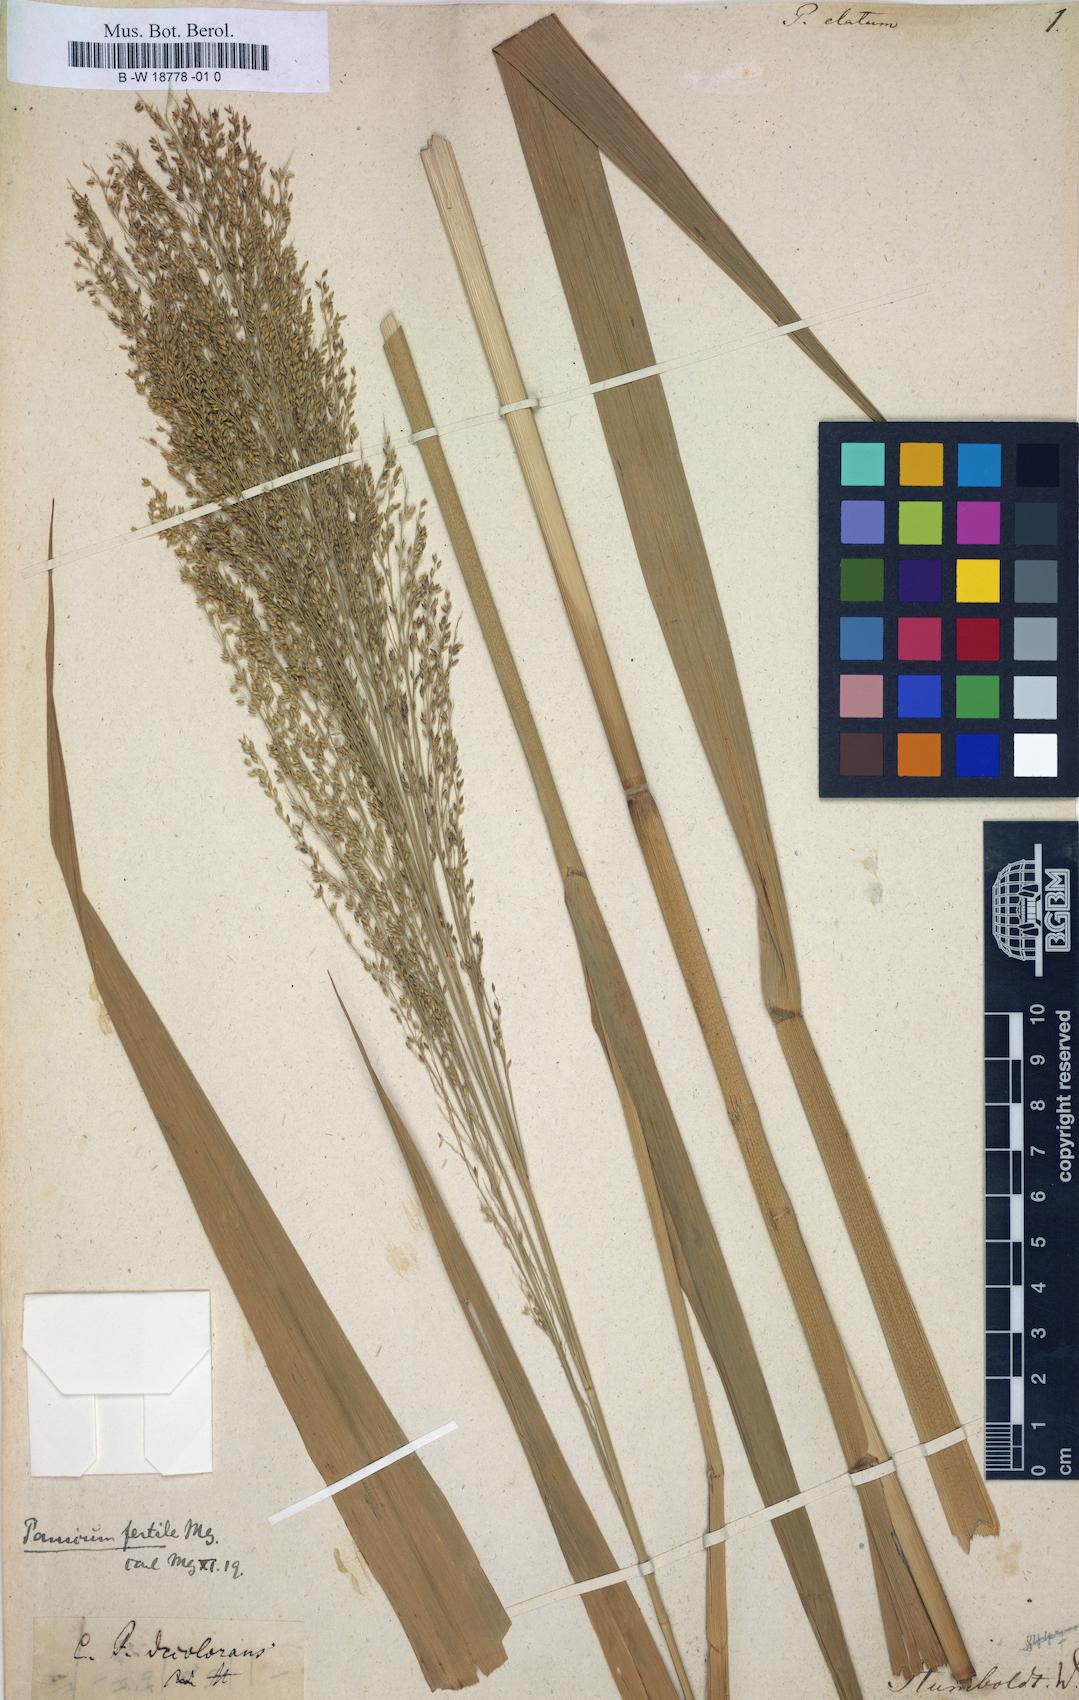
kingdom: Plantae
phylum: Tracheophyta
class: Liliopsida
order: Poales
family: Poaceae
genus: Panicum
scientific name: Panicum hirsutum
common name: Giant witchgrass
